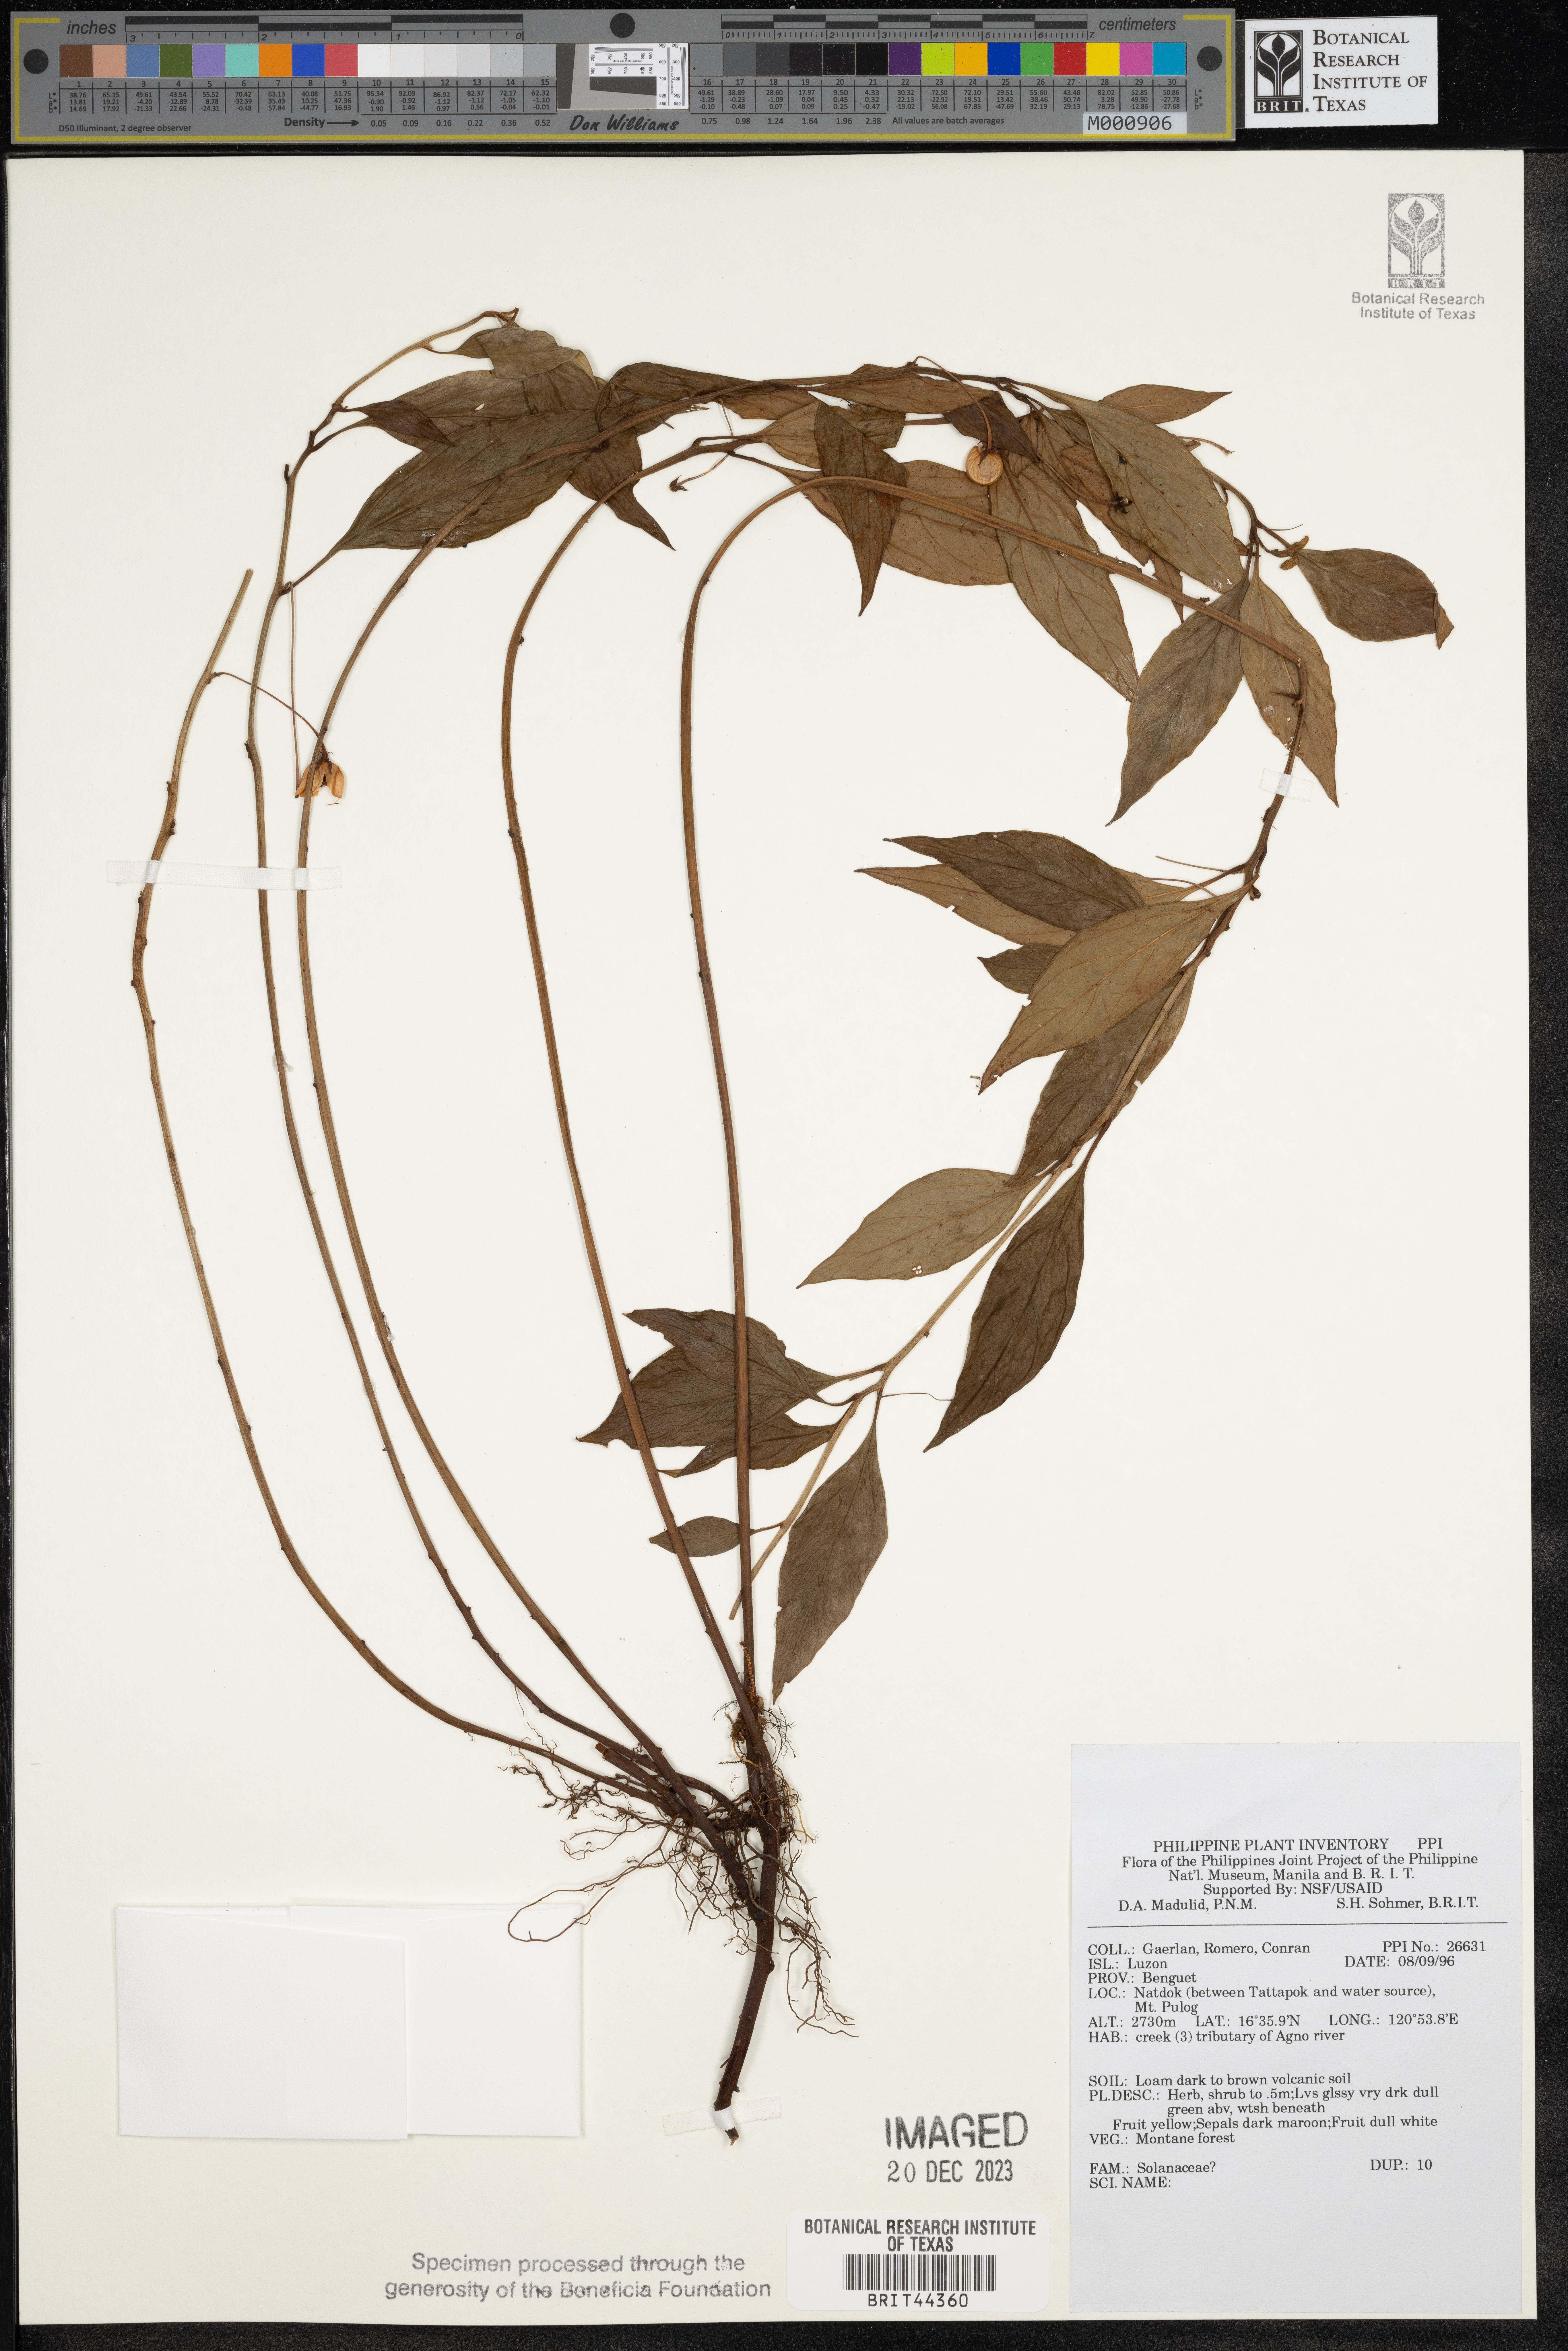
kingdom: Plantae
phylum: Tracheophyta
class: Magnoliopsida
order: Solanales
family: Solanaceae
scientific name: Solanaceae
